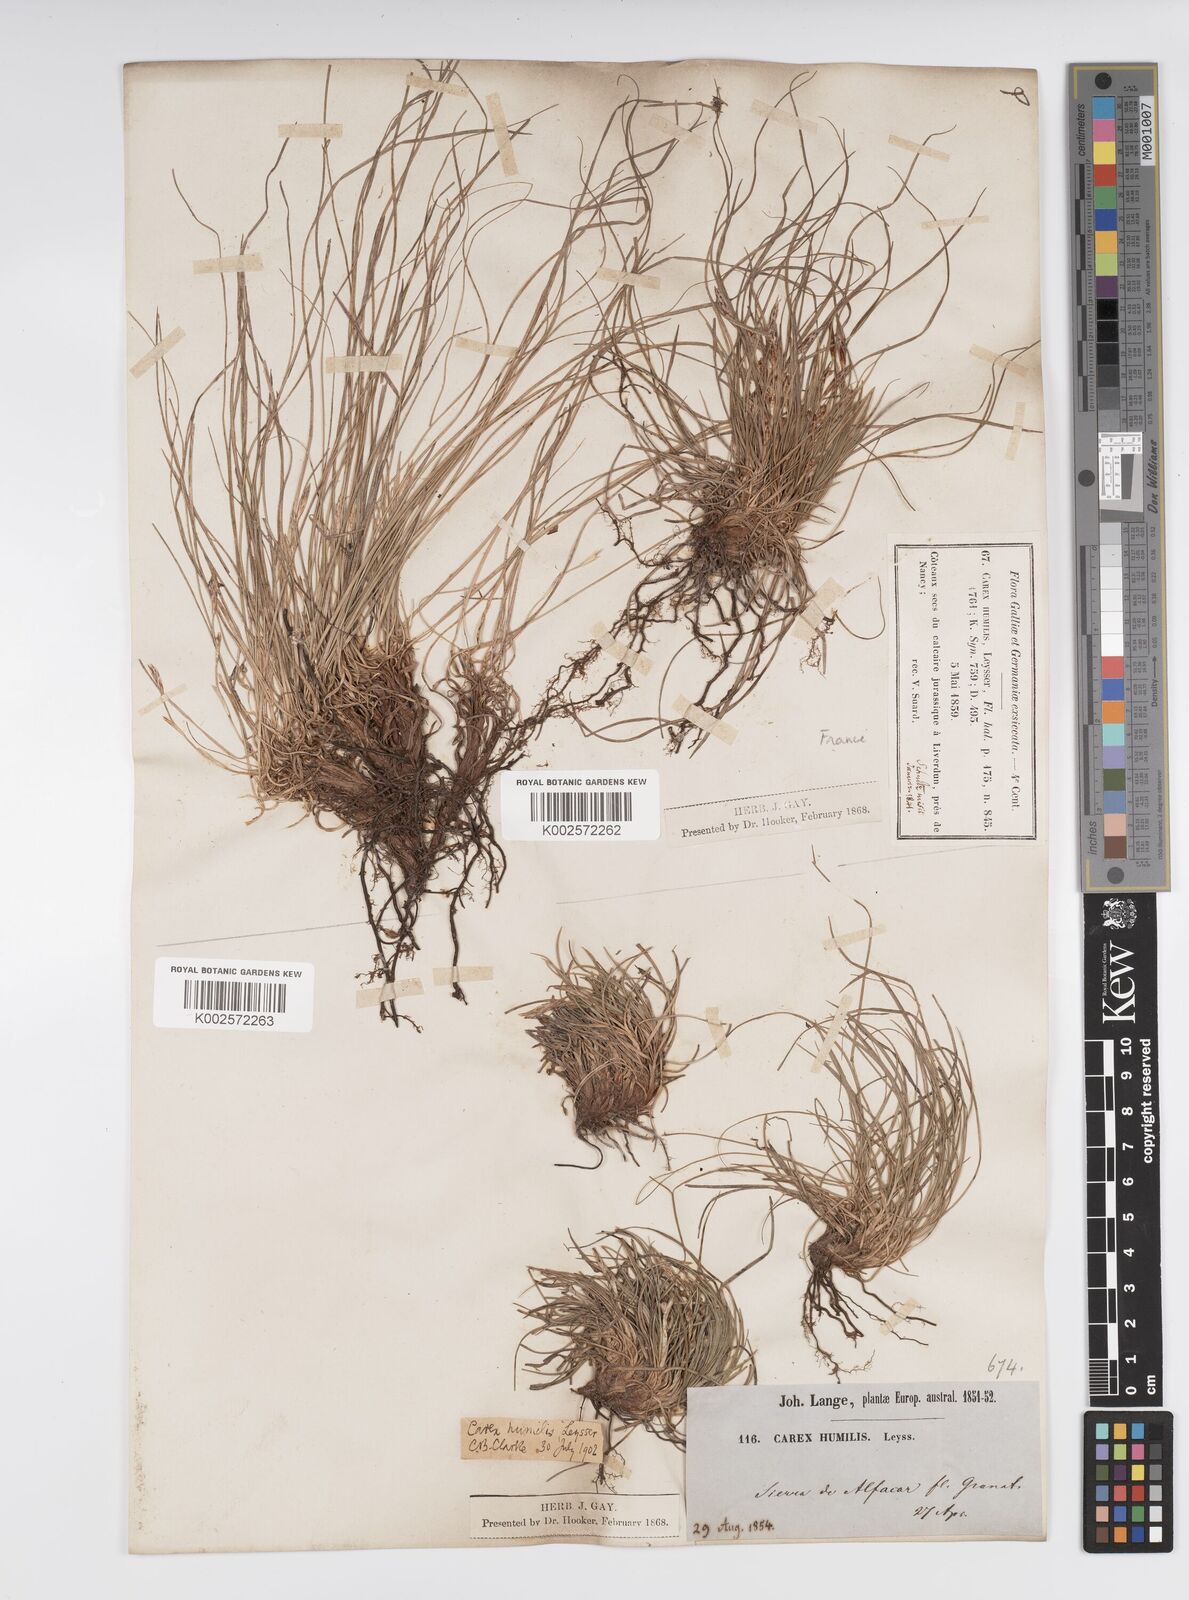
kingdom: Plantae
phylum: Tracheophyta
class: Liliopsida
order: Poales
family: Cyperaceae
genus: Carex
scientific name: Carex humilis
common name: Dwarf sedge
